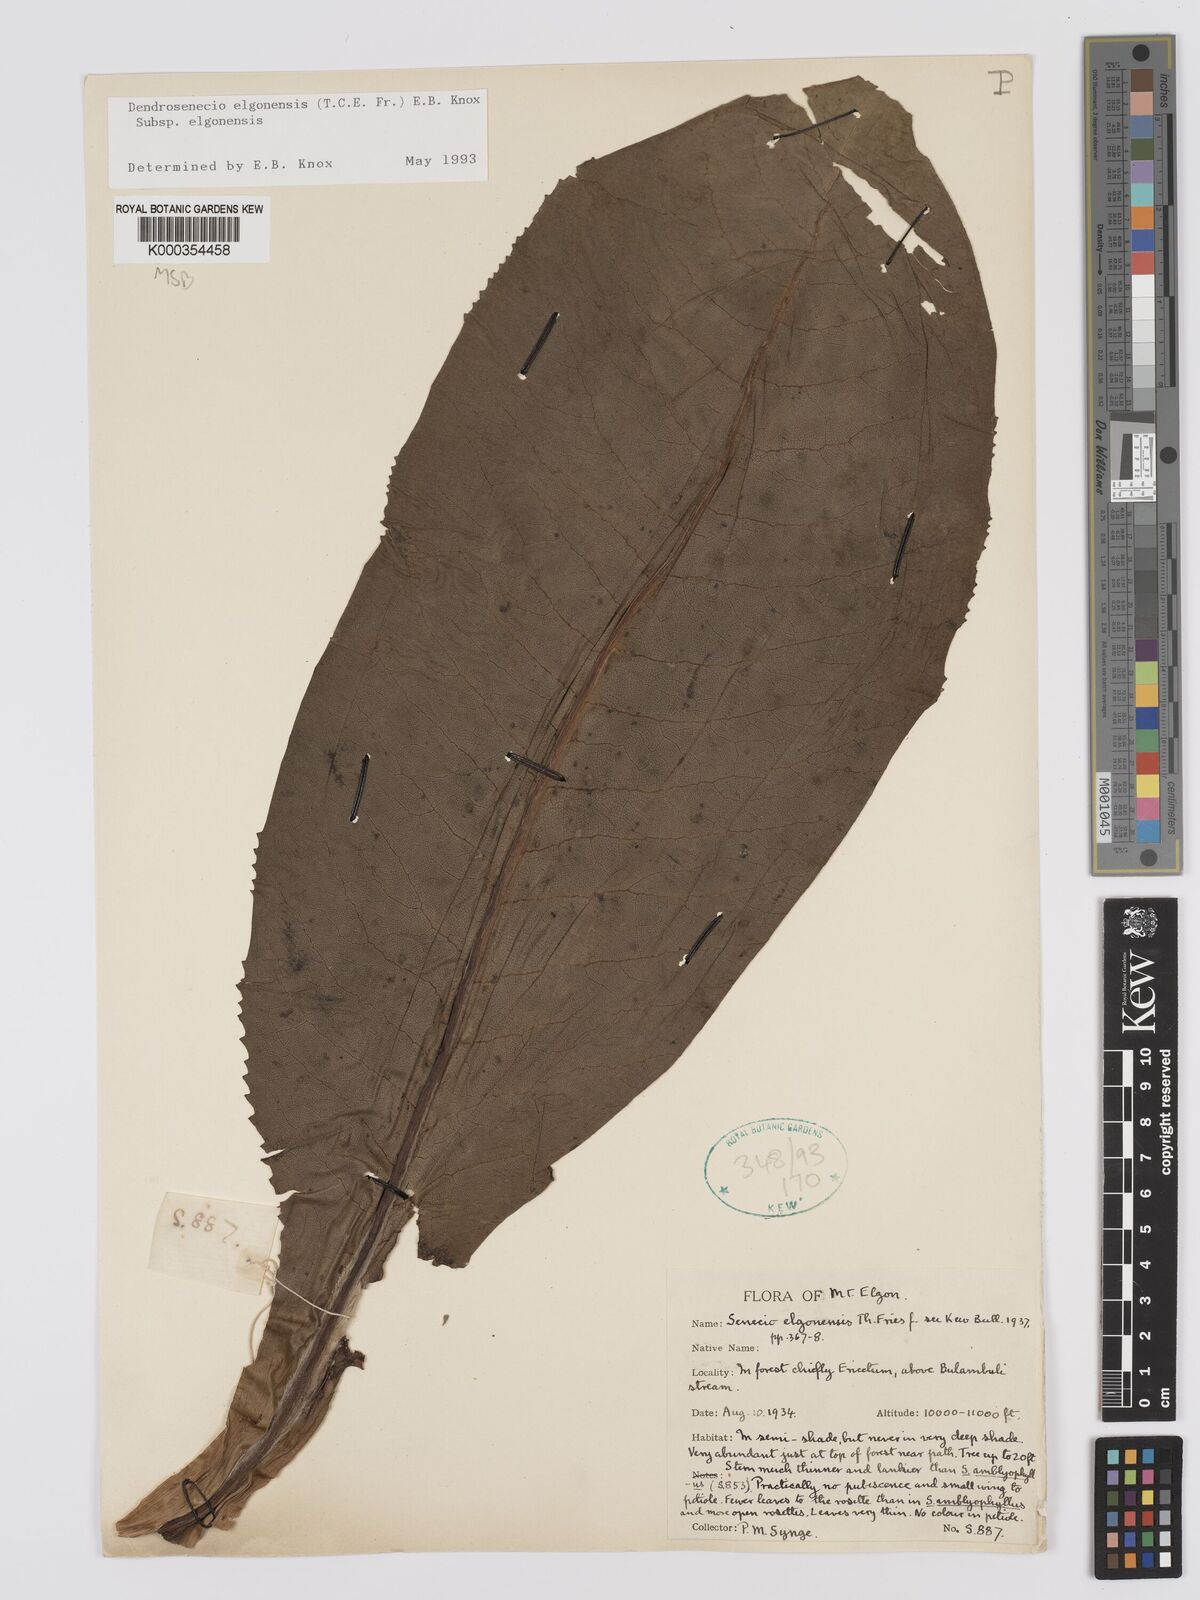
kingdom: Plantae
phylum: Tracheophyta
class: Magnoliopsida
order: Asterales
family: Asteraceae
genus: Dendrosenecio
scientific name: Dendrosenecio elgonensis
